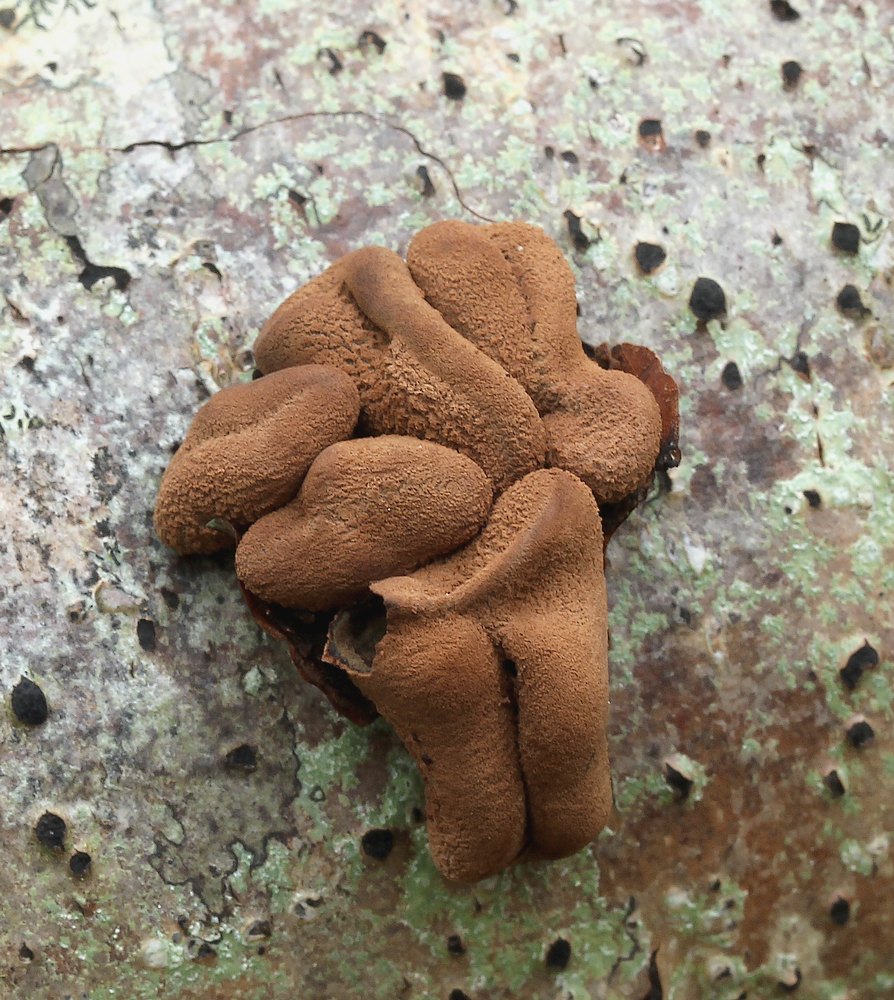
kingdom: Fungi
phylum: Ascomycota
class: Leotiomycetes
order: Helotiales
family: Cenangiaceae
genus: Encoelia
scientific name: Encoelia furfuracea
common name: hassel-læderskive
